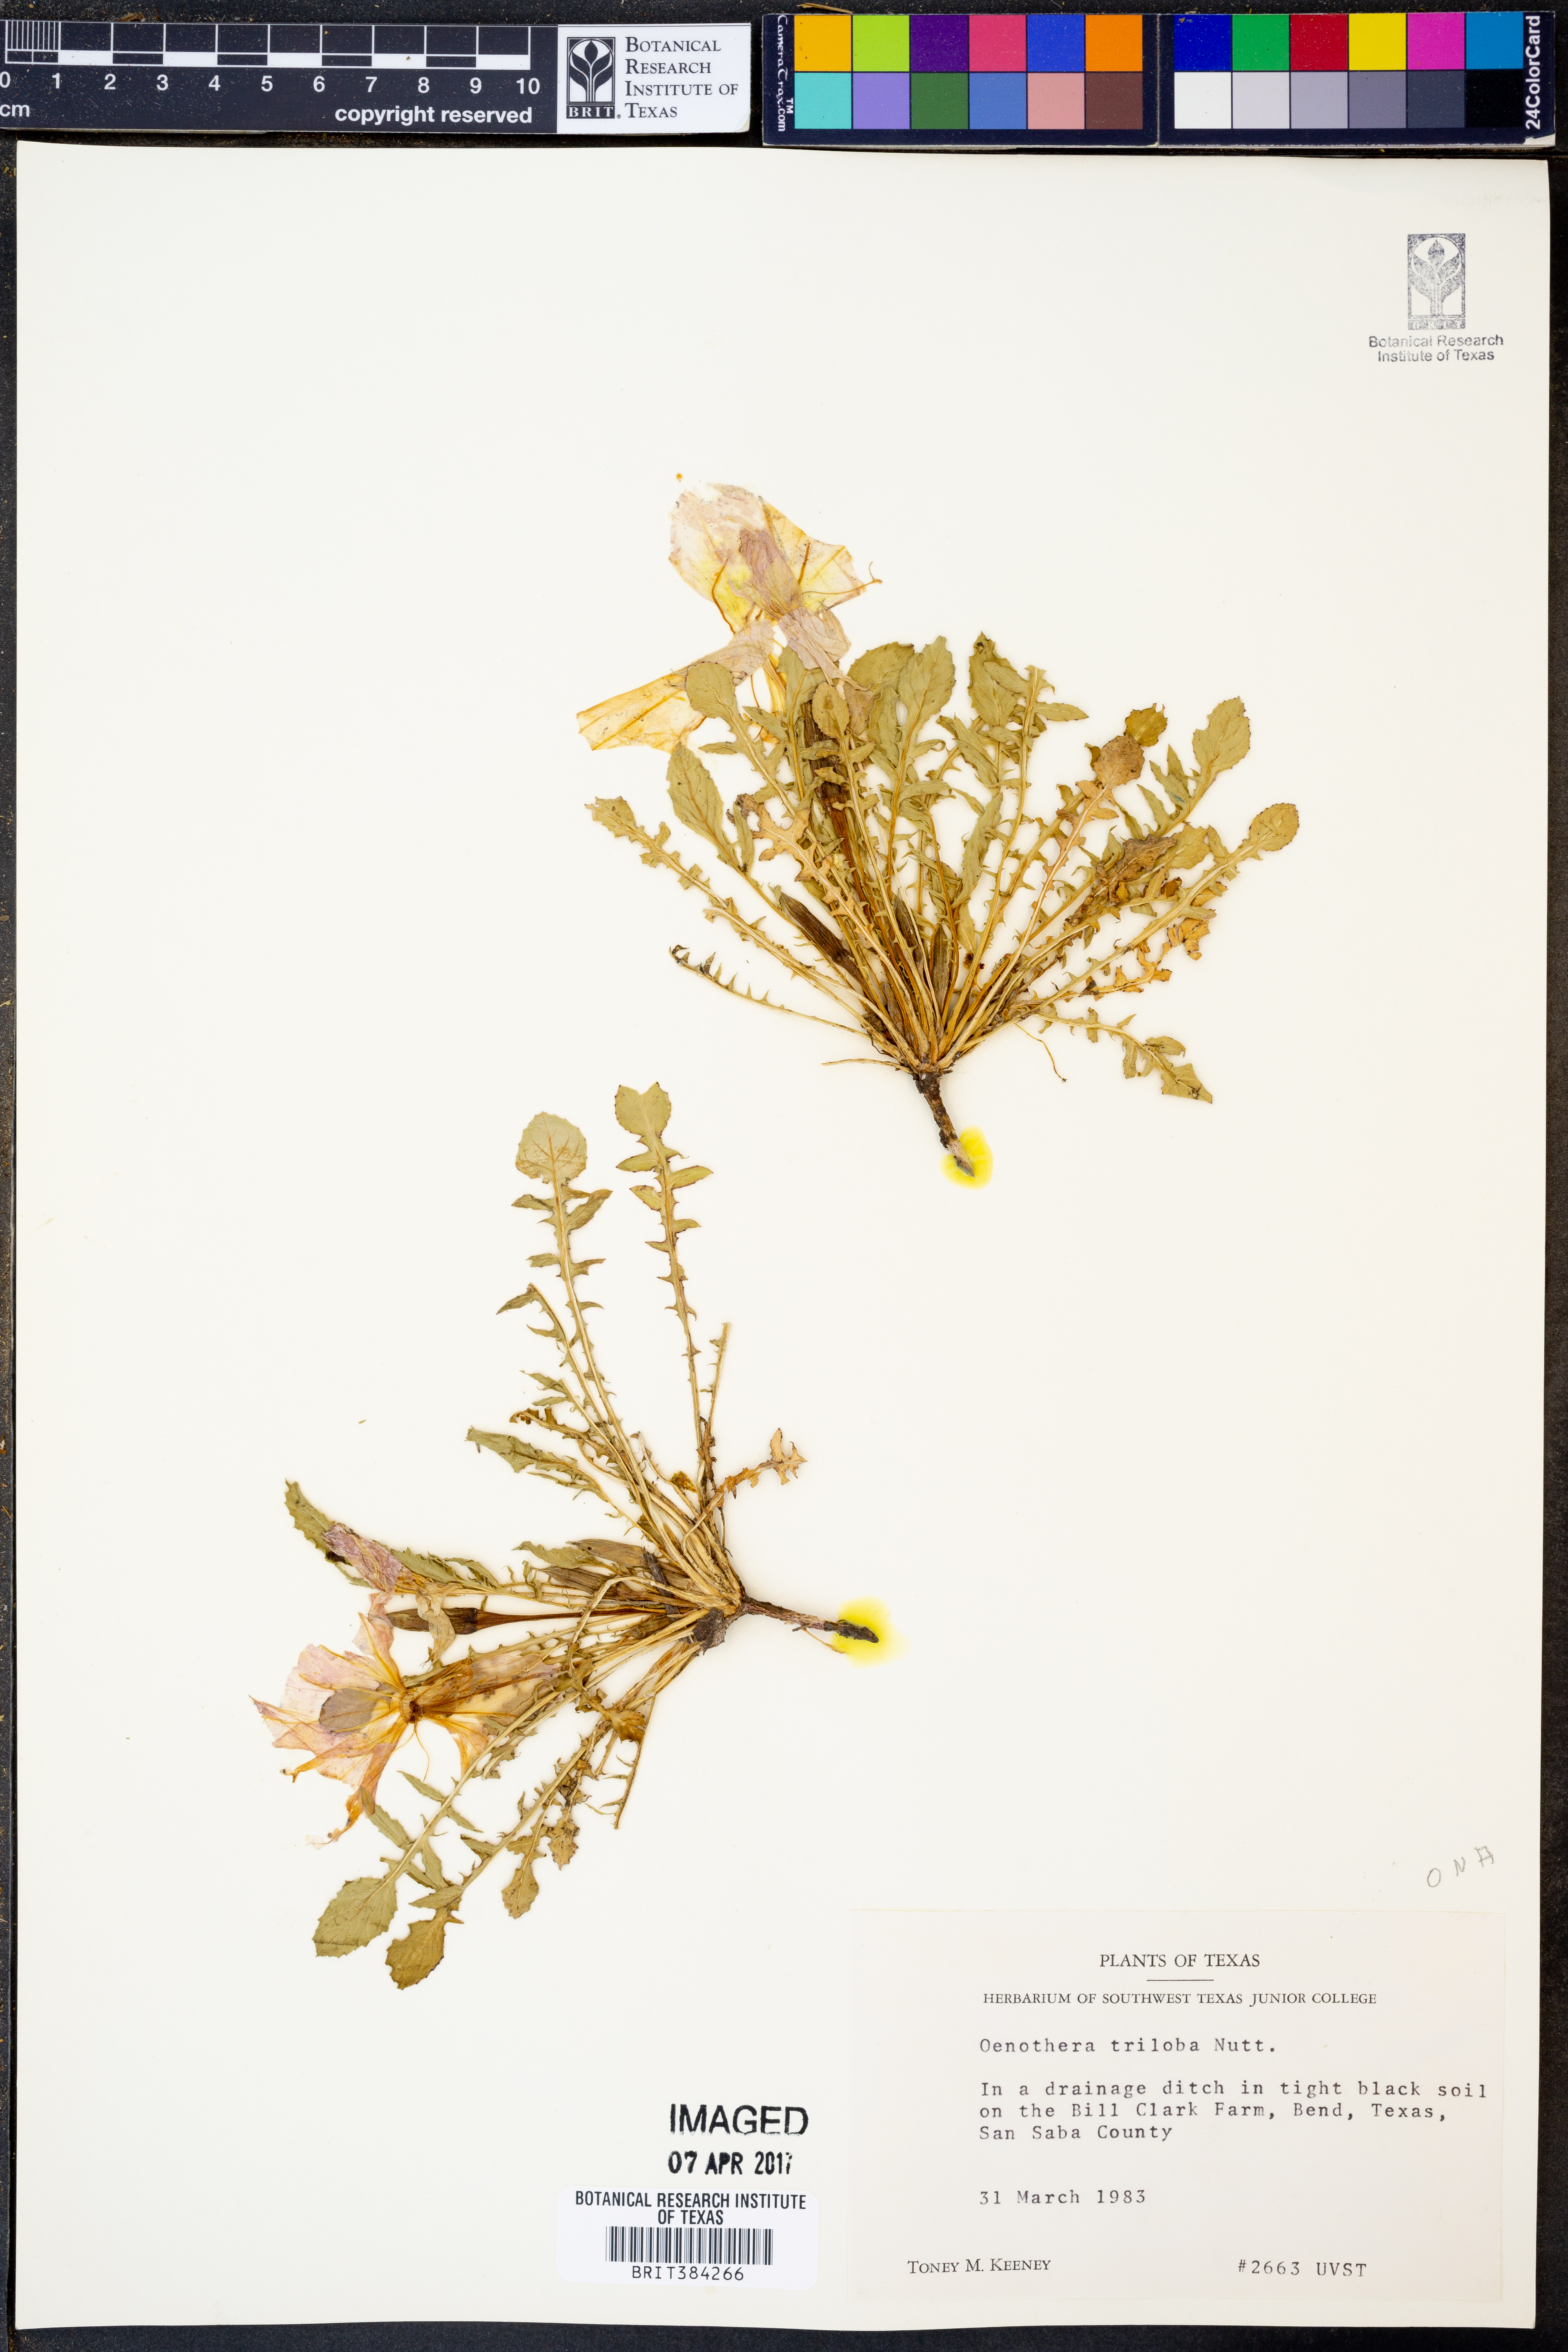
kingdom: Plantae
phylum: Tracheophyta
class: Magnoliopsida
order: Myrtales
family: Onagraceae
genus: Oenothera
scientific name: Oenothera triloba
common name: Sessile evening-primrose
